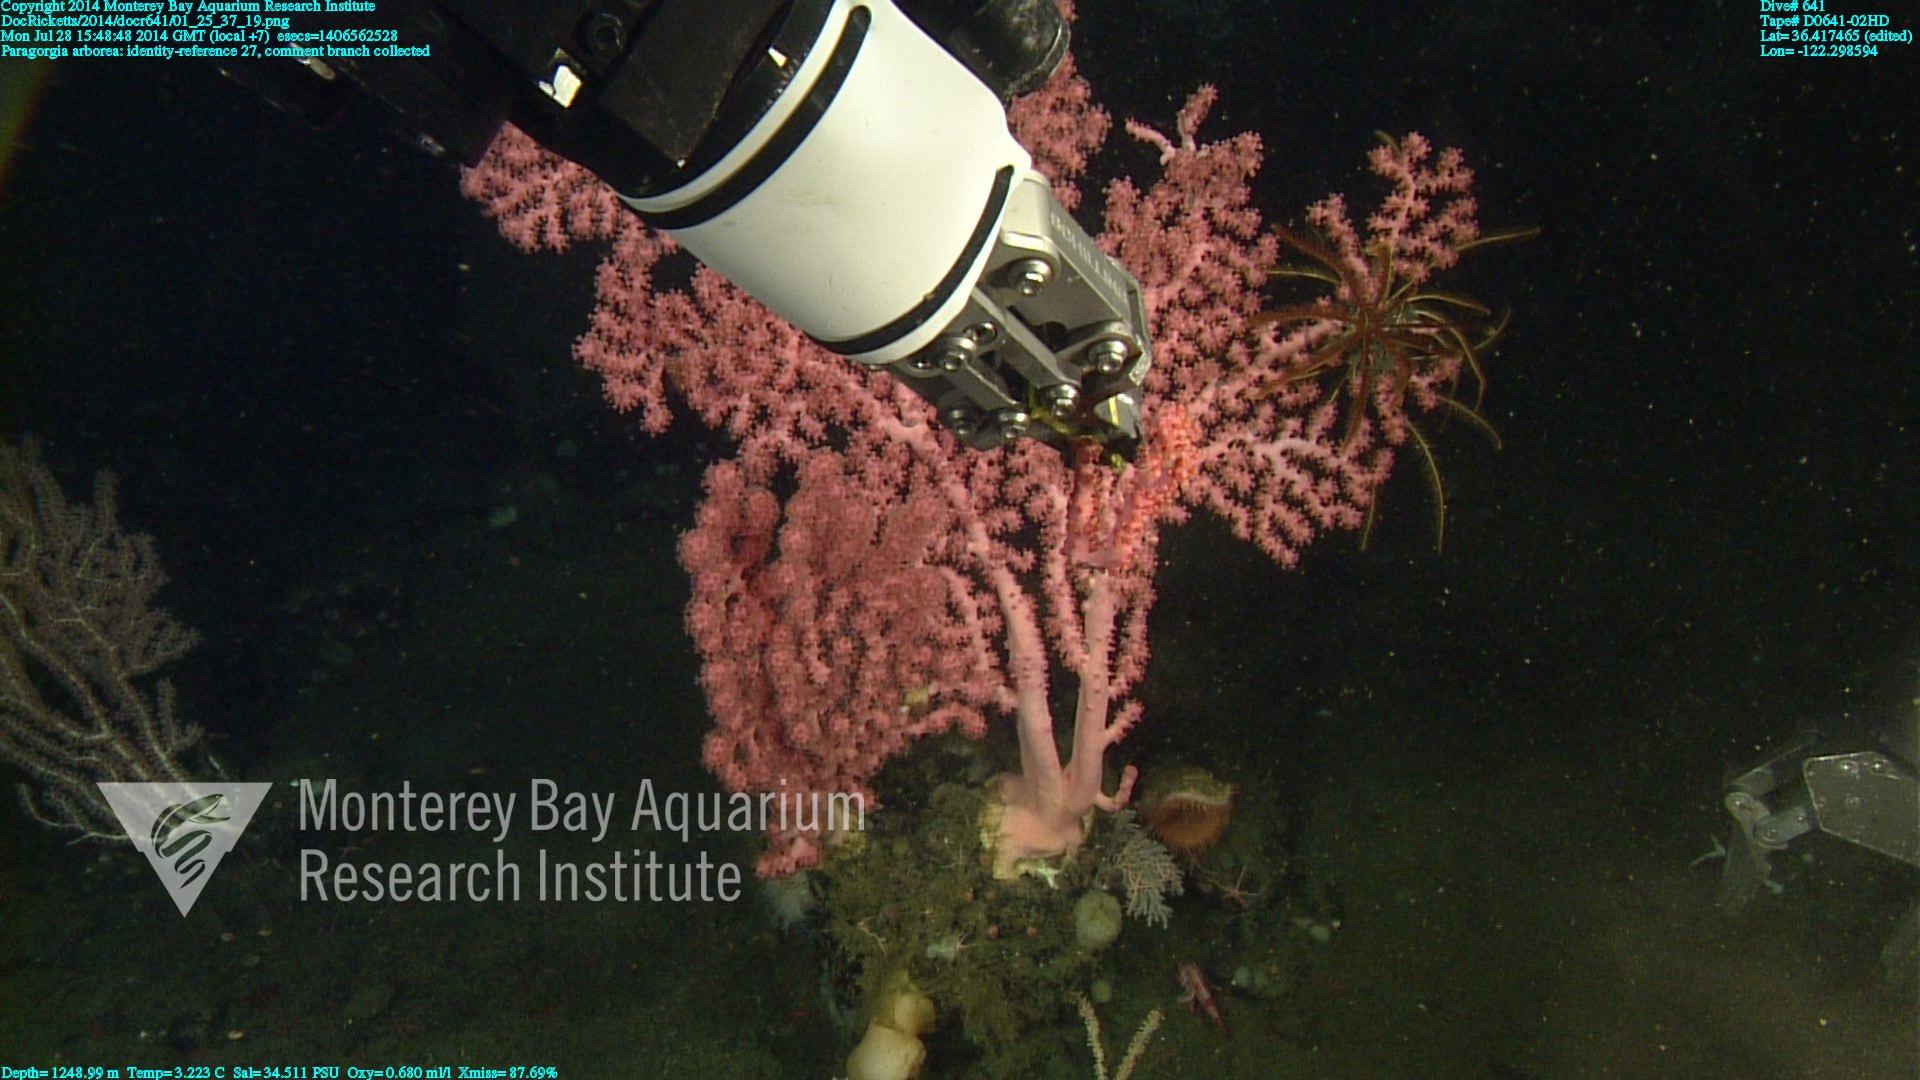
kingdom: Animalia
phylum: Cnidaria
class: Anthozoa
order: Scleralcyonacea
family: Coralliidae
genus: Paragorgia
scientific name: Paragorgia arborea
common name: Bubble gum coral
